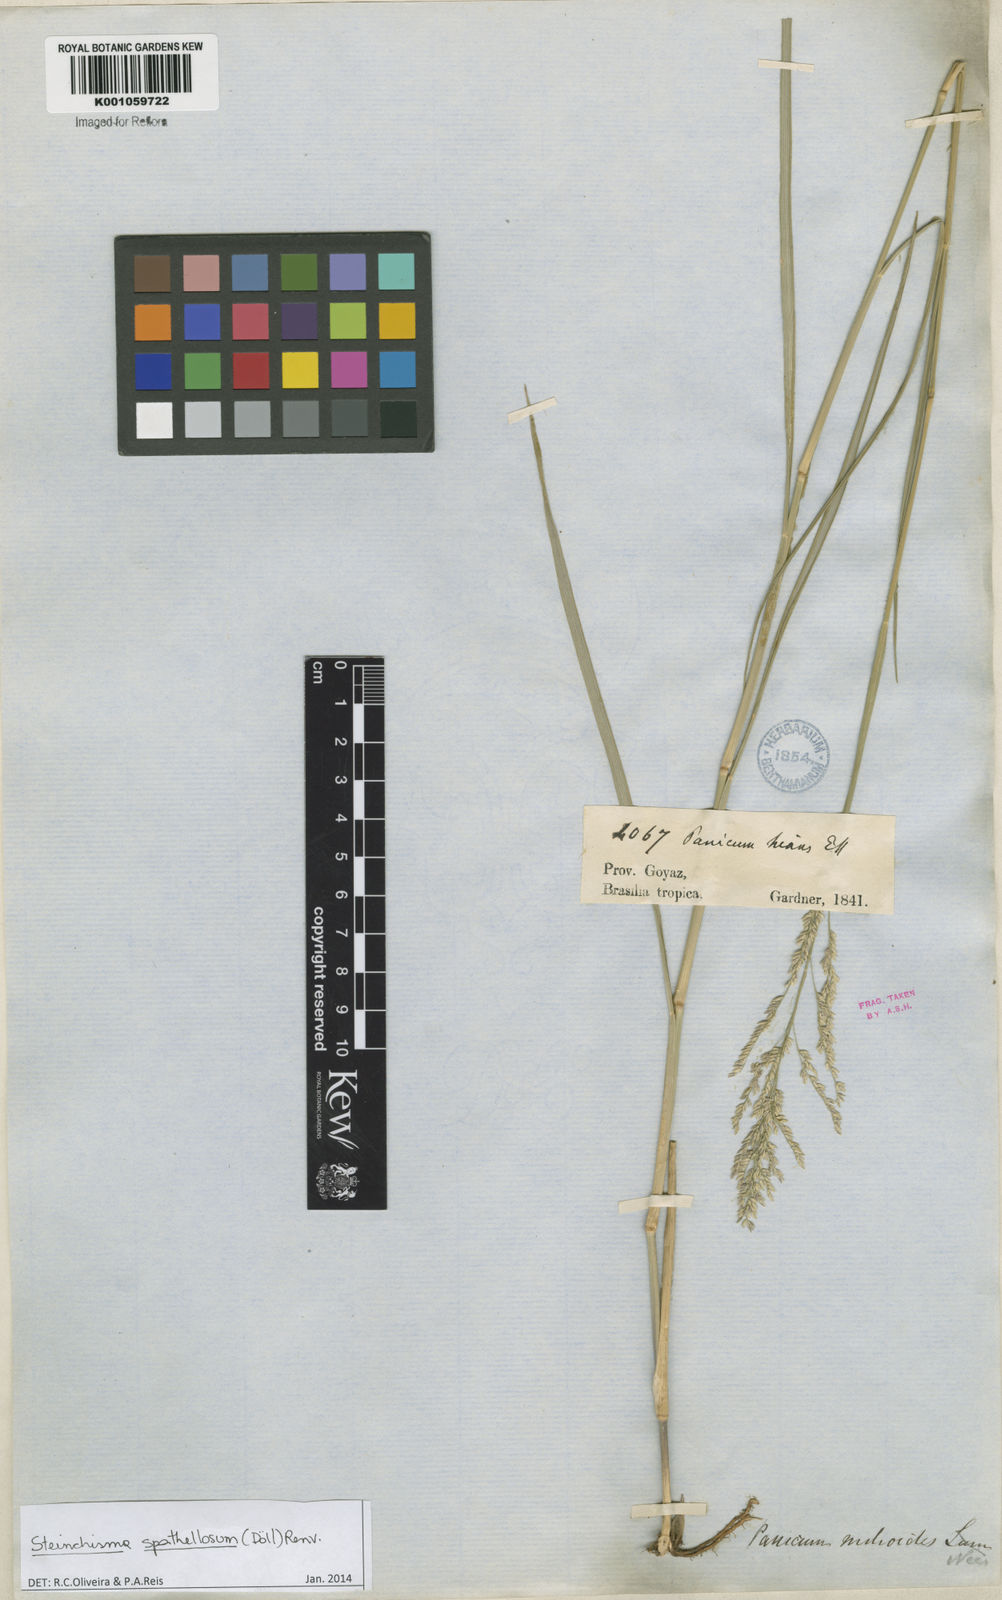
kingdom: Plantae
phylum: Tracheophyta
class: Liliopsida
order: Poales
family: Poaceae
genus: Steinchisma
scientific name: Steinchisma
